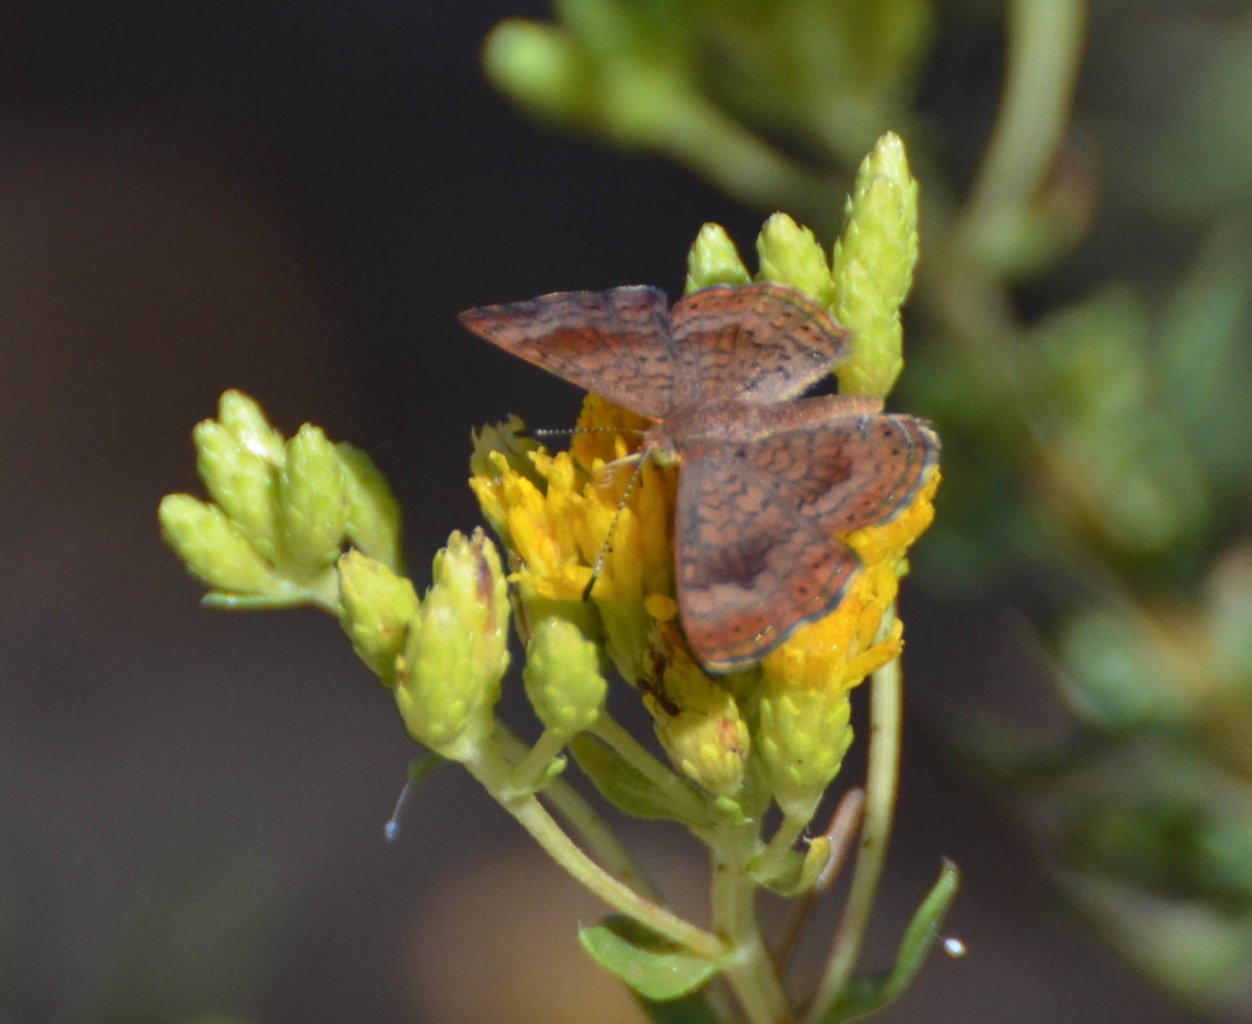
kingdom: Animalia
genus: Calephelis
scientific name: Calephelis nemesis
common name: Fatal Metalmark
